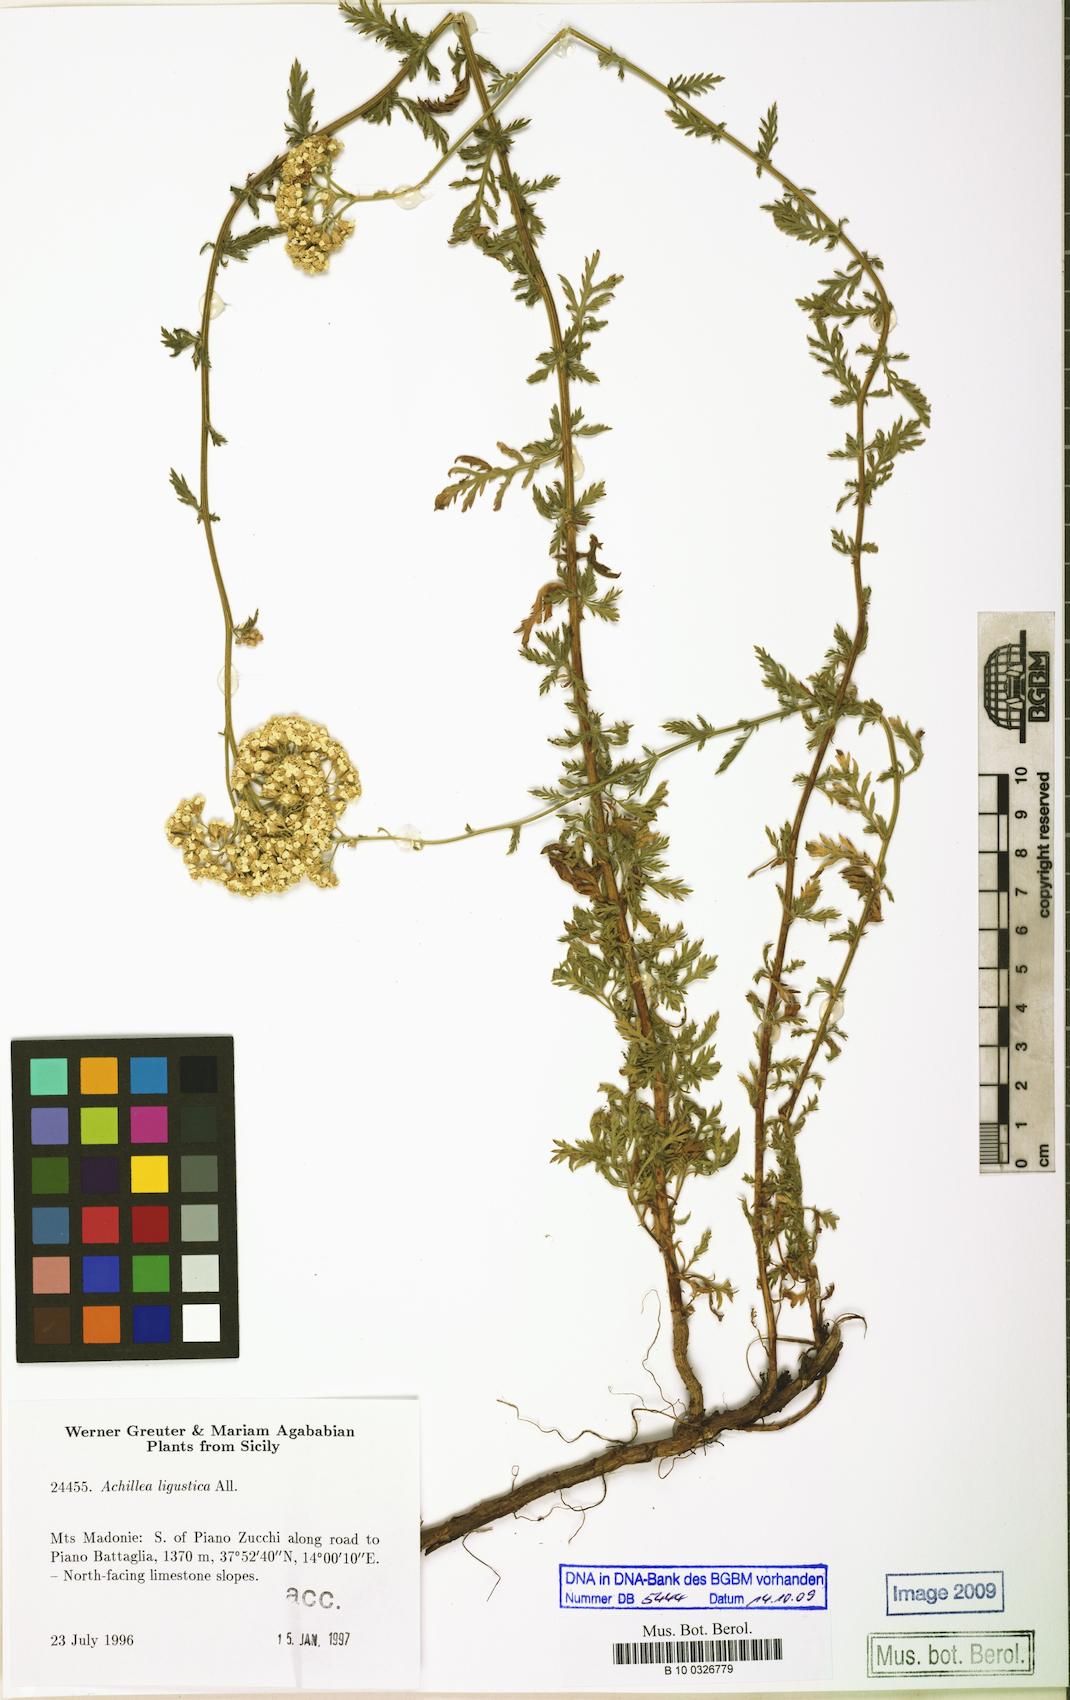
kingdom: Plantae
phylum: Tracheophyta
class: Magnoliopsida
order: Asterales
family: Asteraceae
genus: Achillea
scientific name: Achillea ligustica
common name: Southern yarrow
